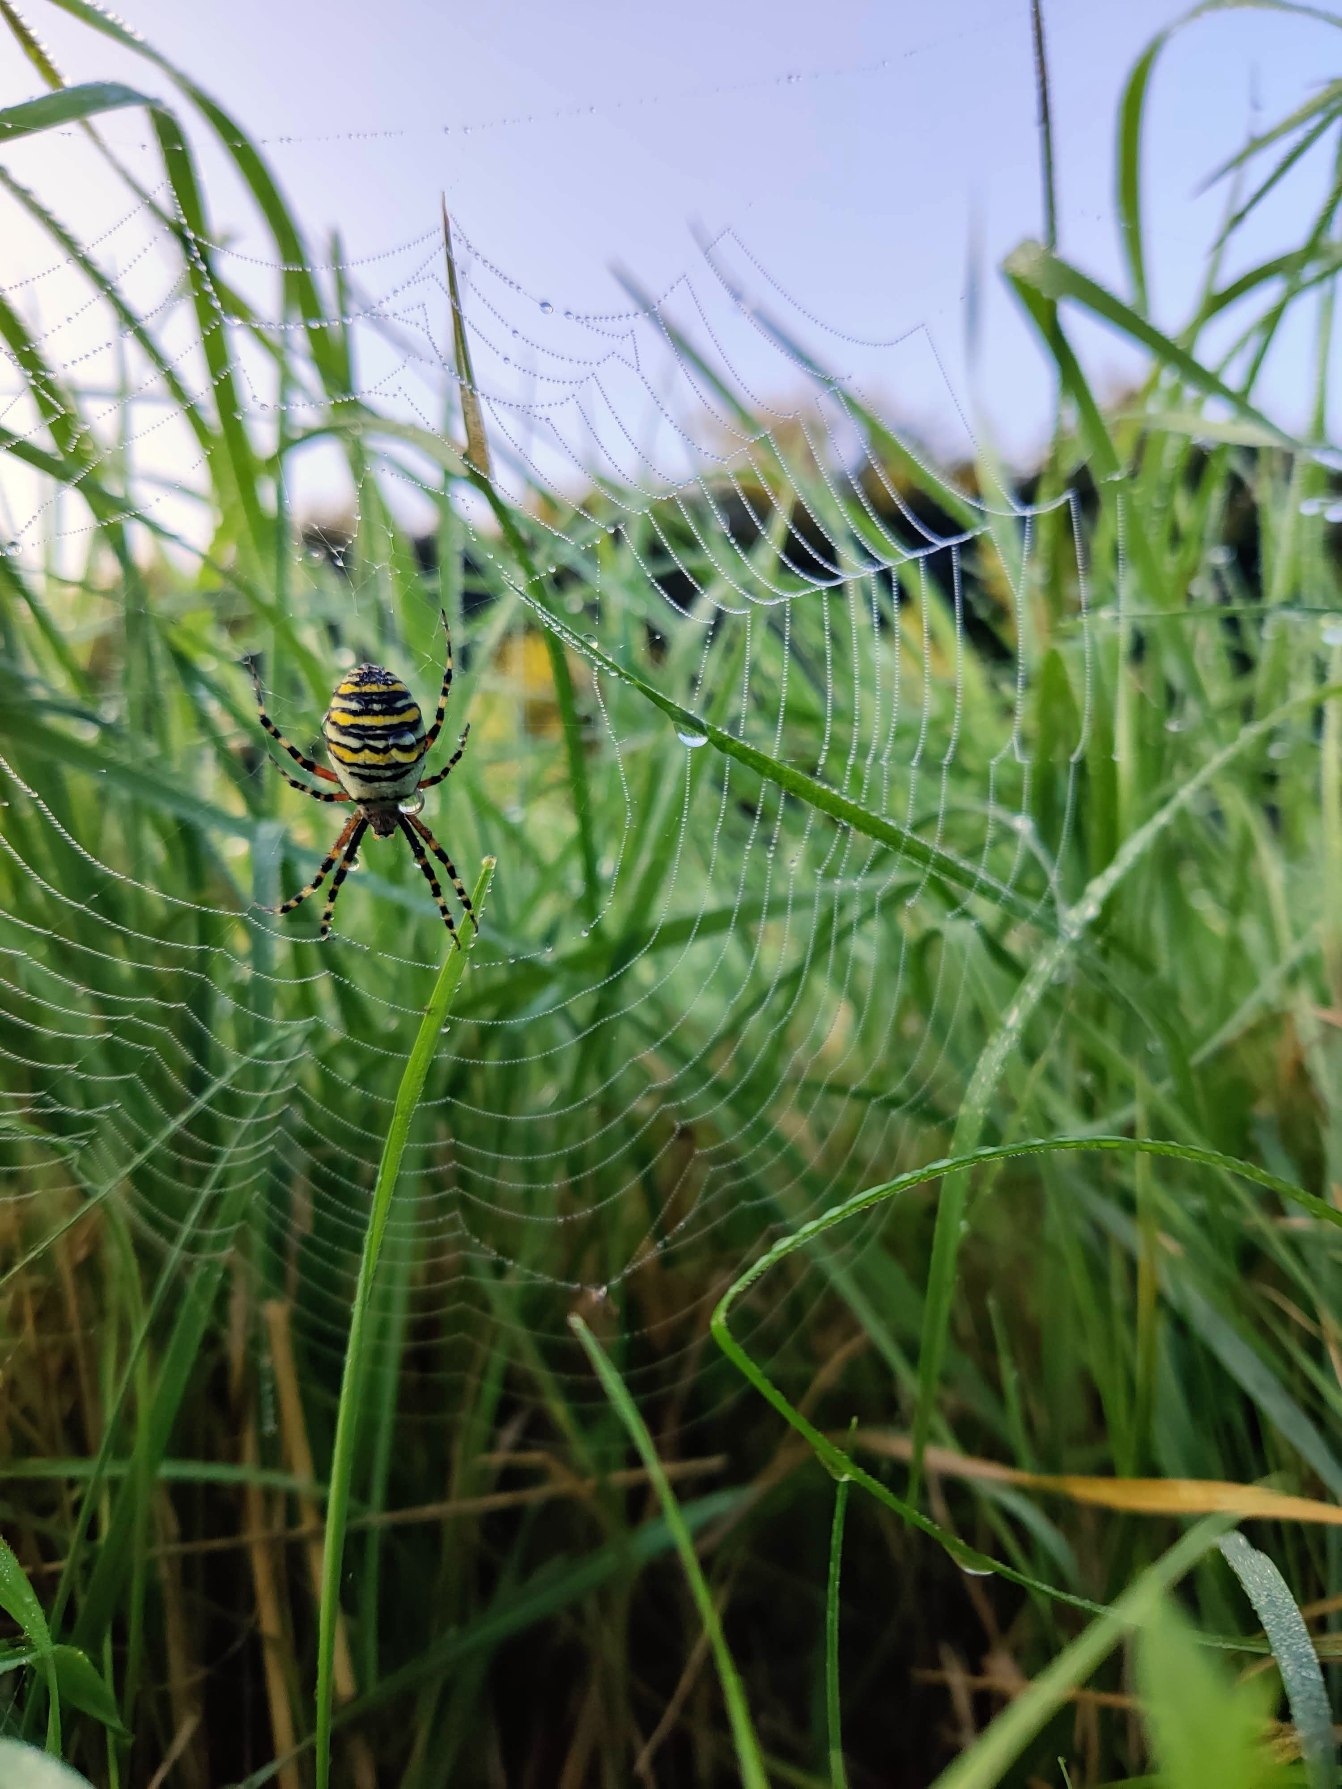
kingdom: Animalia
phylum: Arthropoda
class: Arachnida
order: Araneae
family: Araneidae
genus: Argiope
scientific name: Argiope bruennichi
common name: Hvepseedderkop
